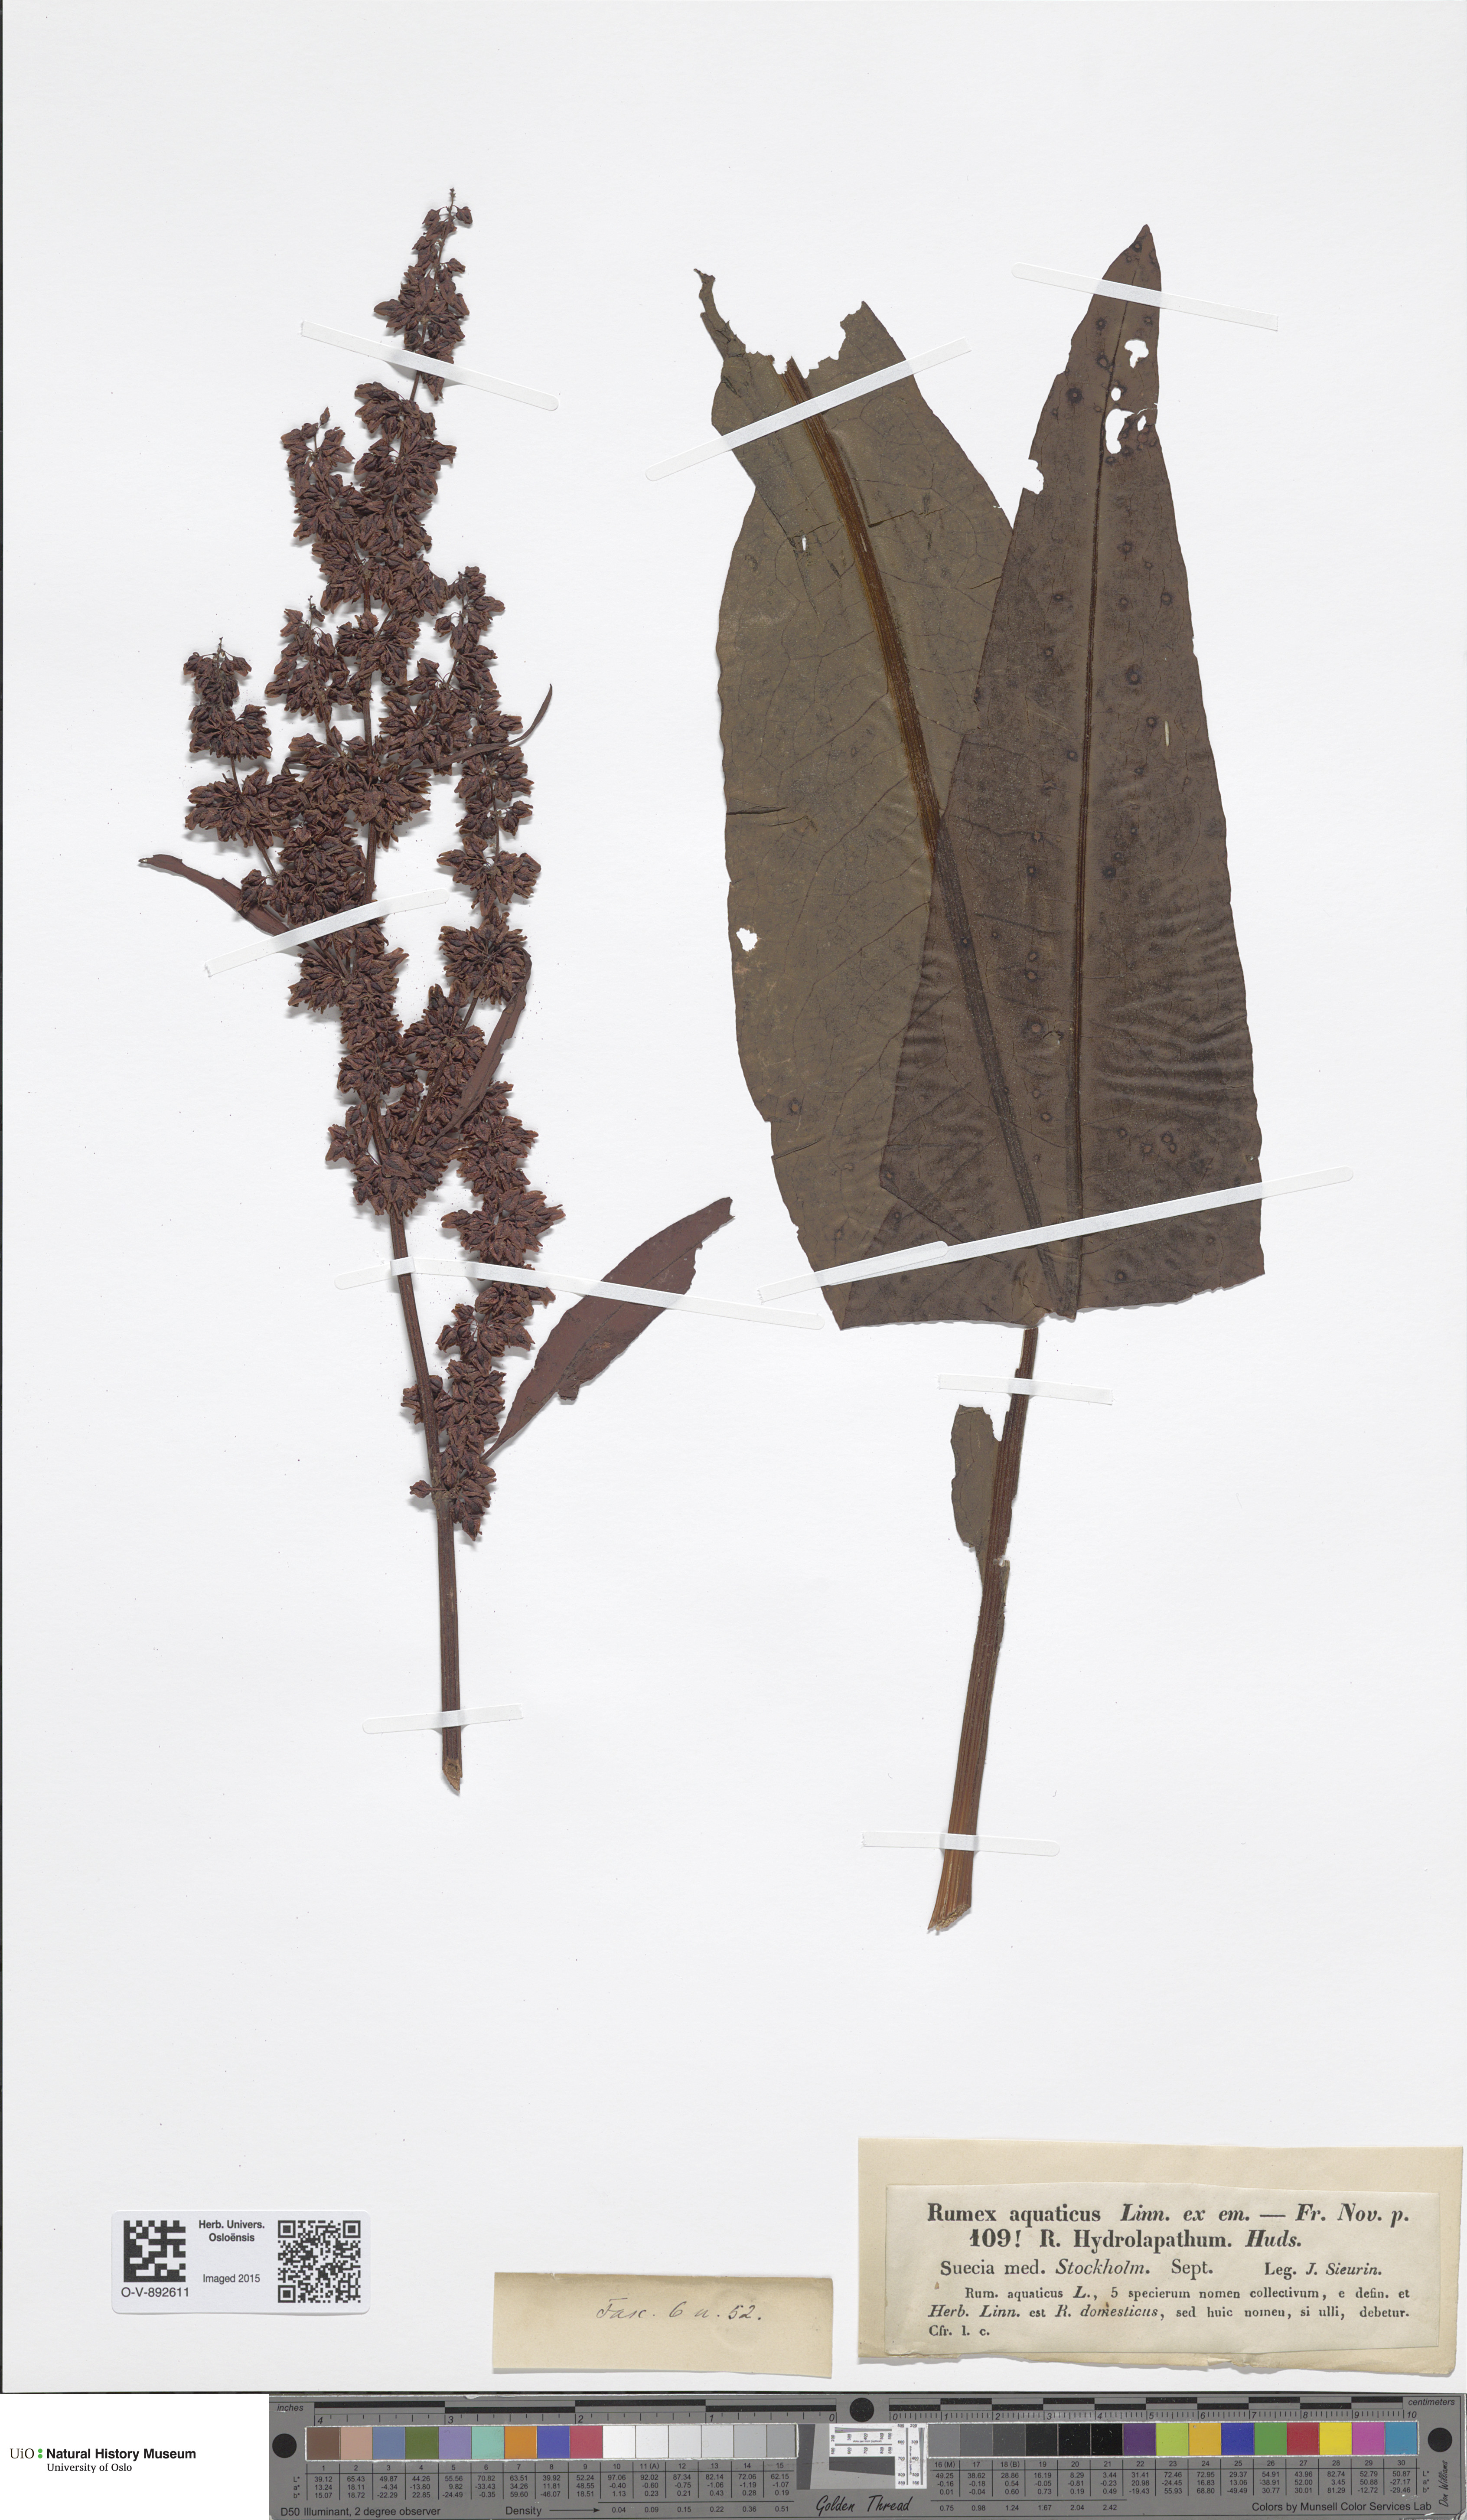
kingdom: Plantae
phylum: Tracheophyta
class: Magnoliopsida
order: Caryophyllales
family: Polygonaceae
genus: Rumex
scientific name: Rumex aquaticus
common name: Scottish dock
